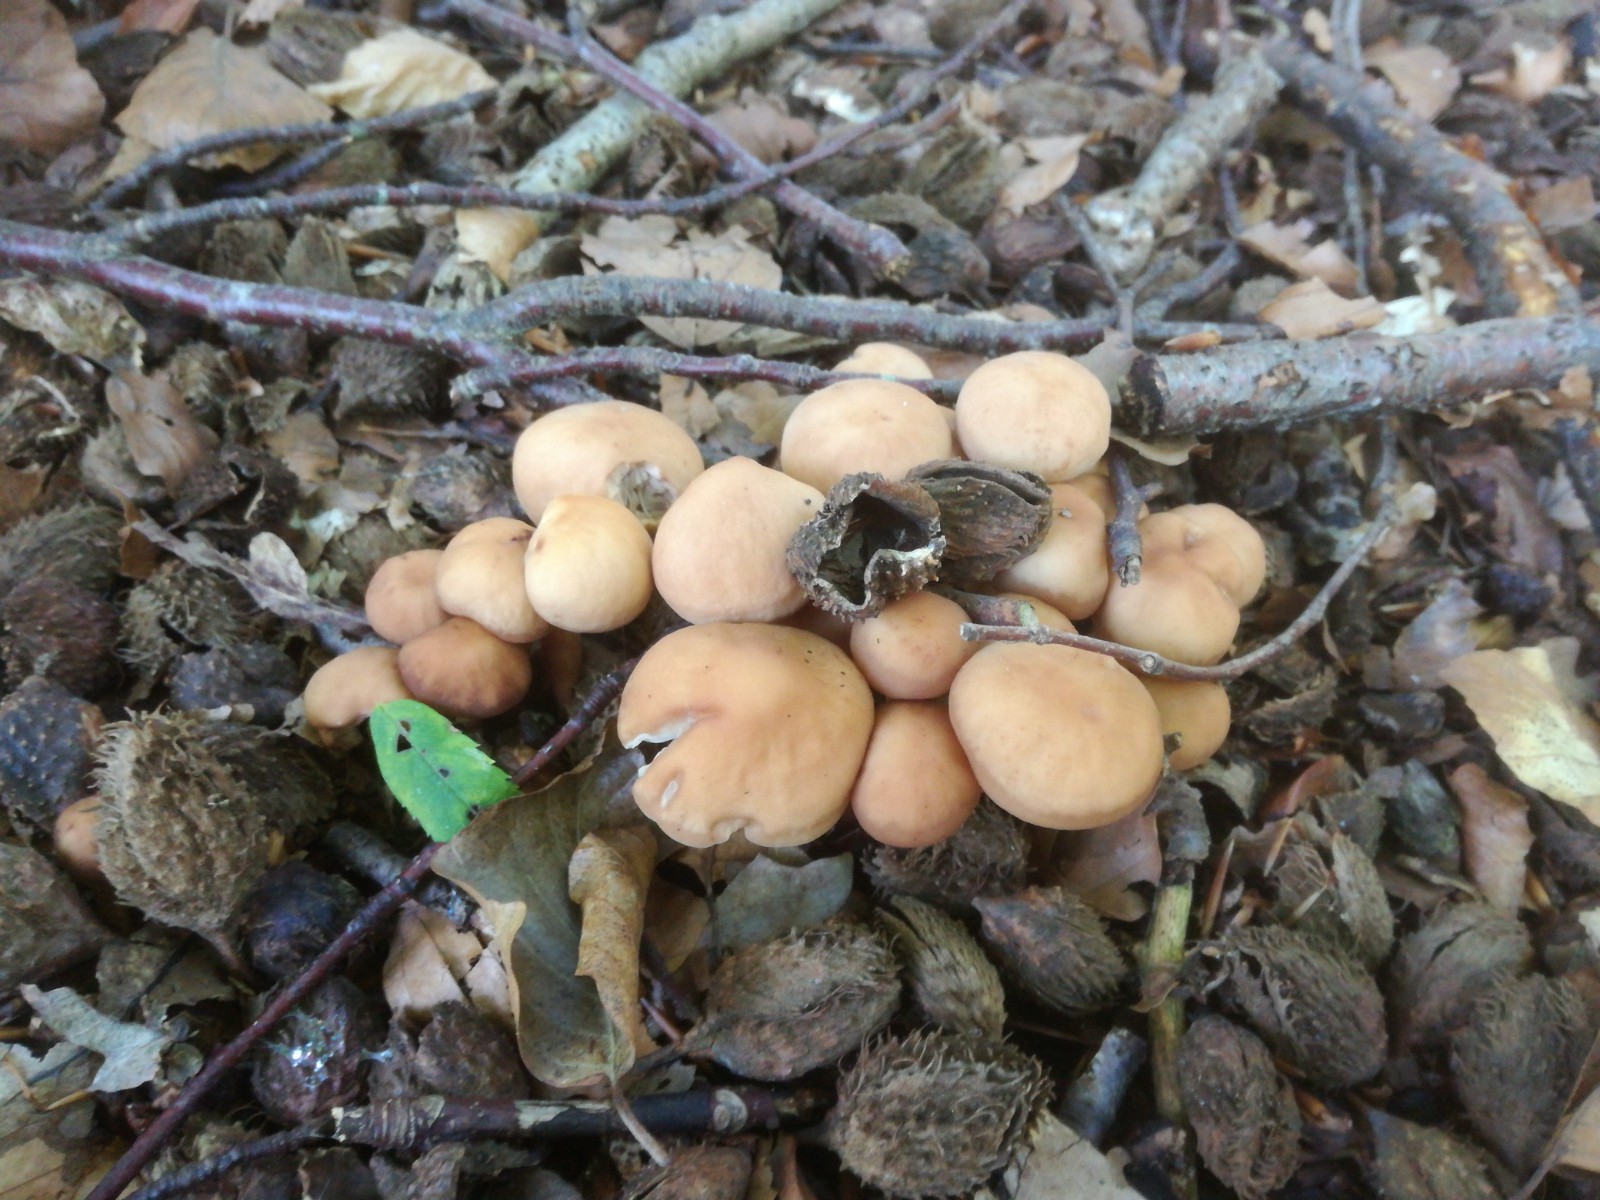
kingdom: Fungi
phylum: Basidiomycota
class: Agaricomycetes
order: Agaricales
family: Omphalotaceae
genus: Gymnopus
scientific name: Gymnopus fusipes
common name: tenstokket fladhat
